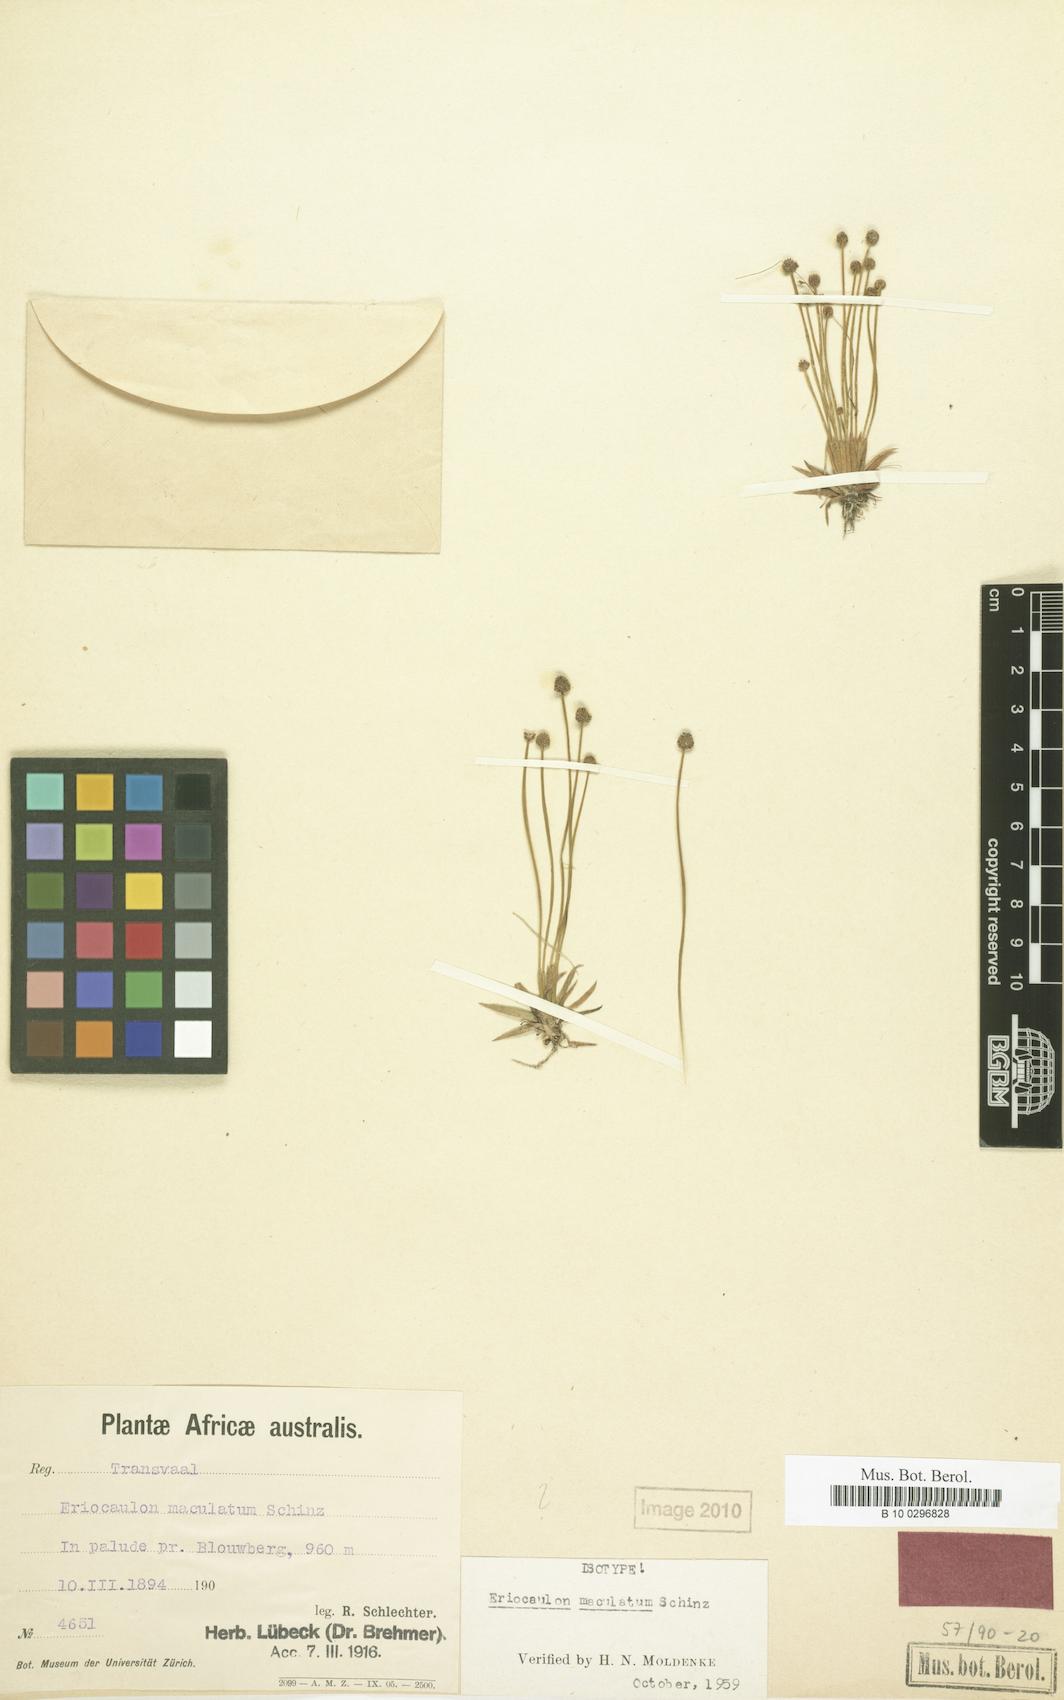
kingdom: Plantae
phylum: Tracheophyta
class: Liliopsida
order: Poales
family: Eriocaulaceae
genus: Eriocaulon
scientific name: Eriocaulon maculatum
